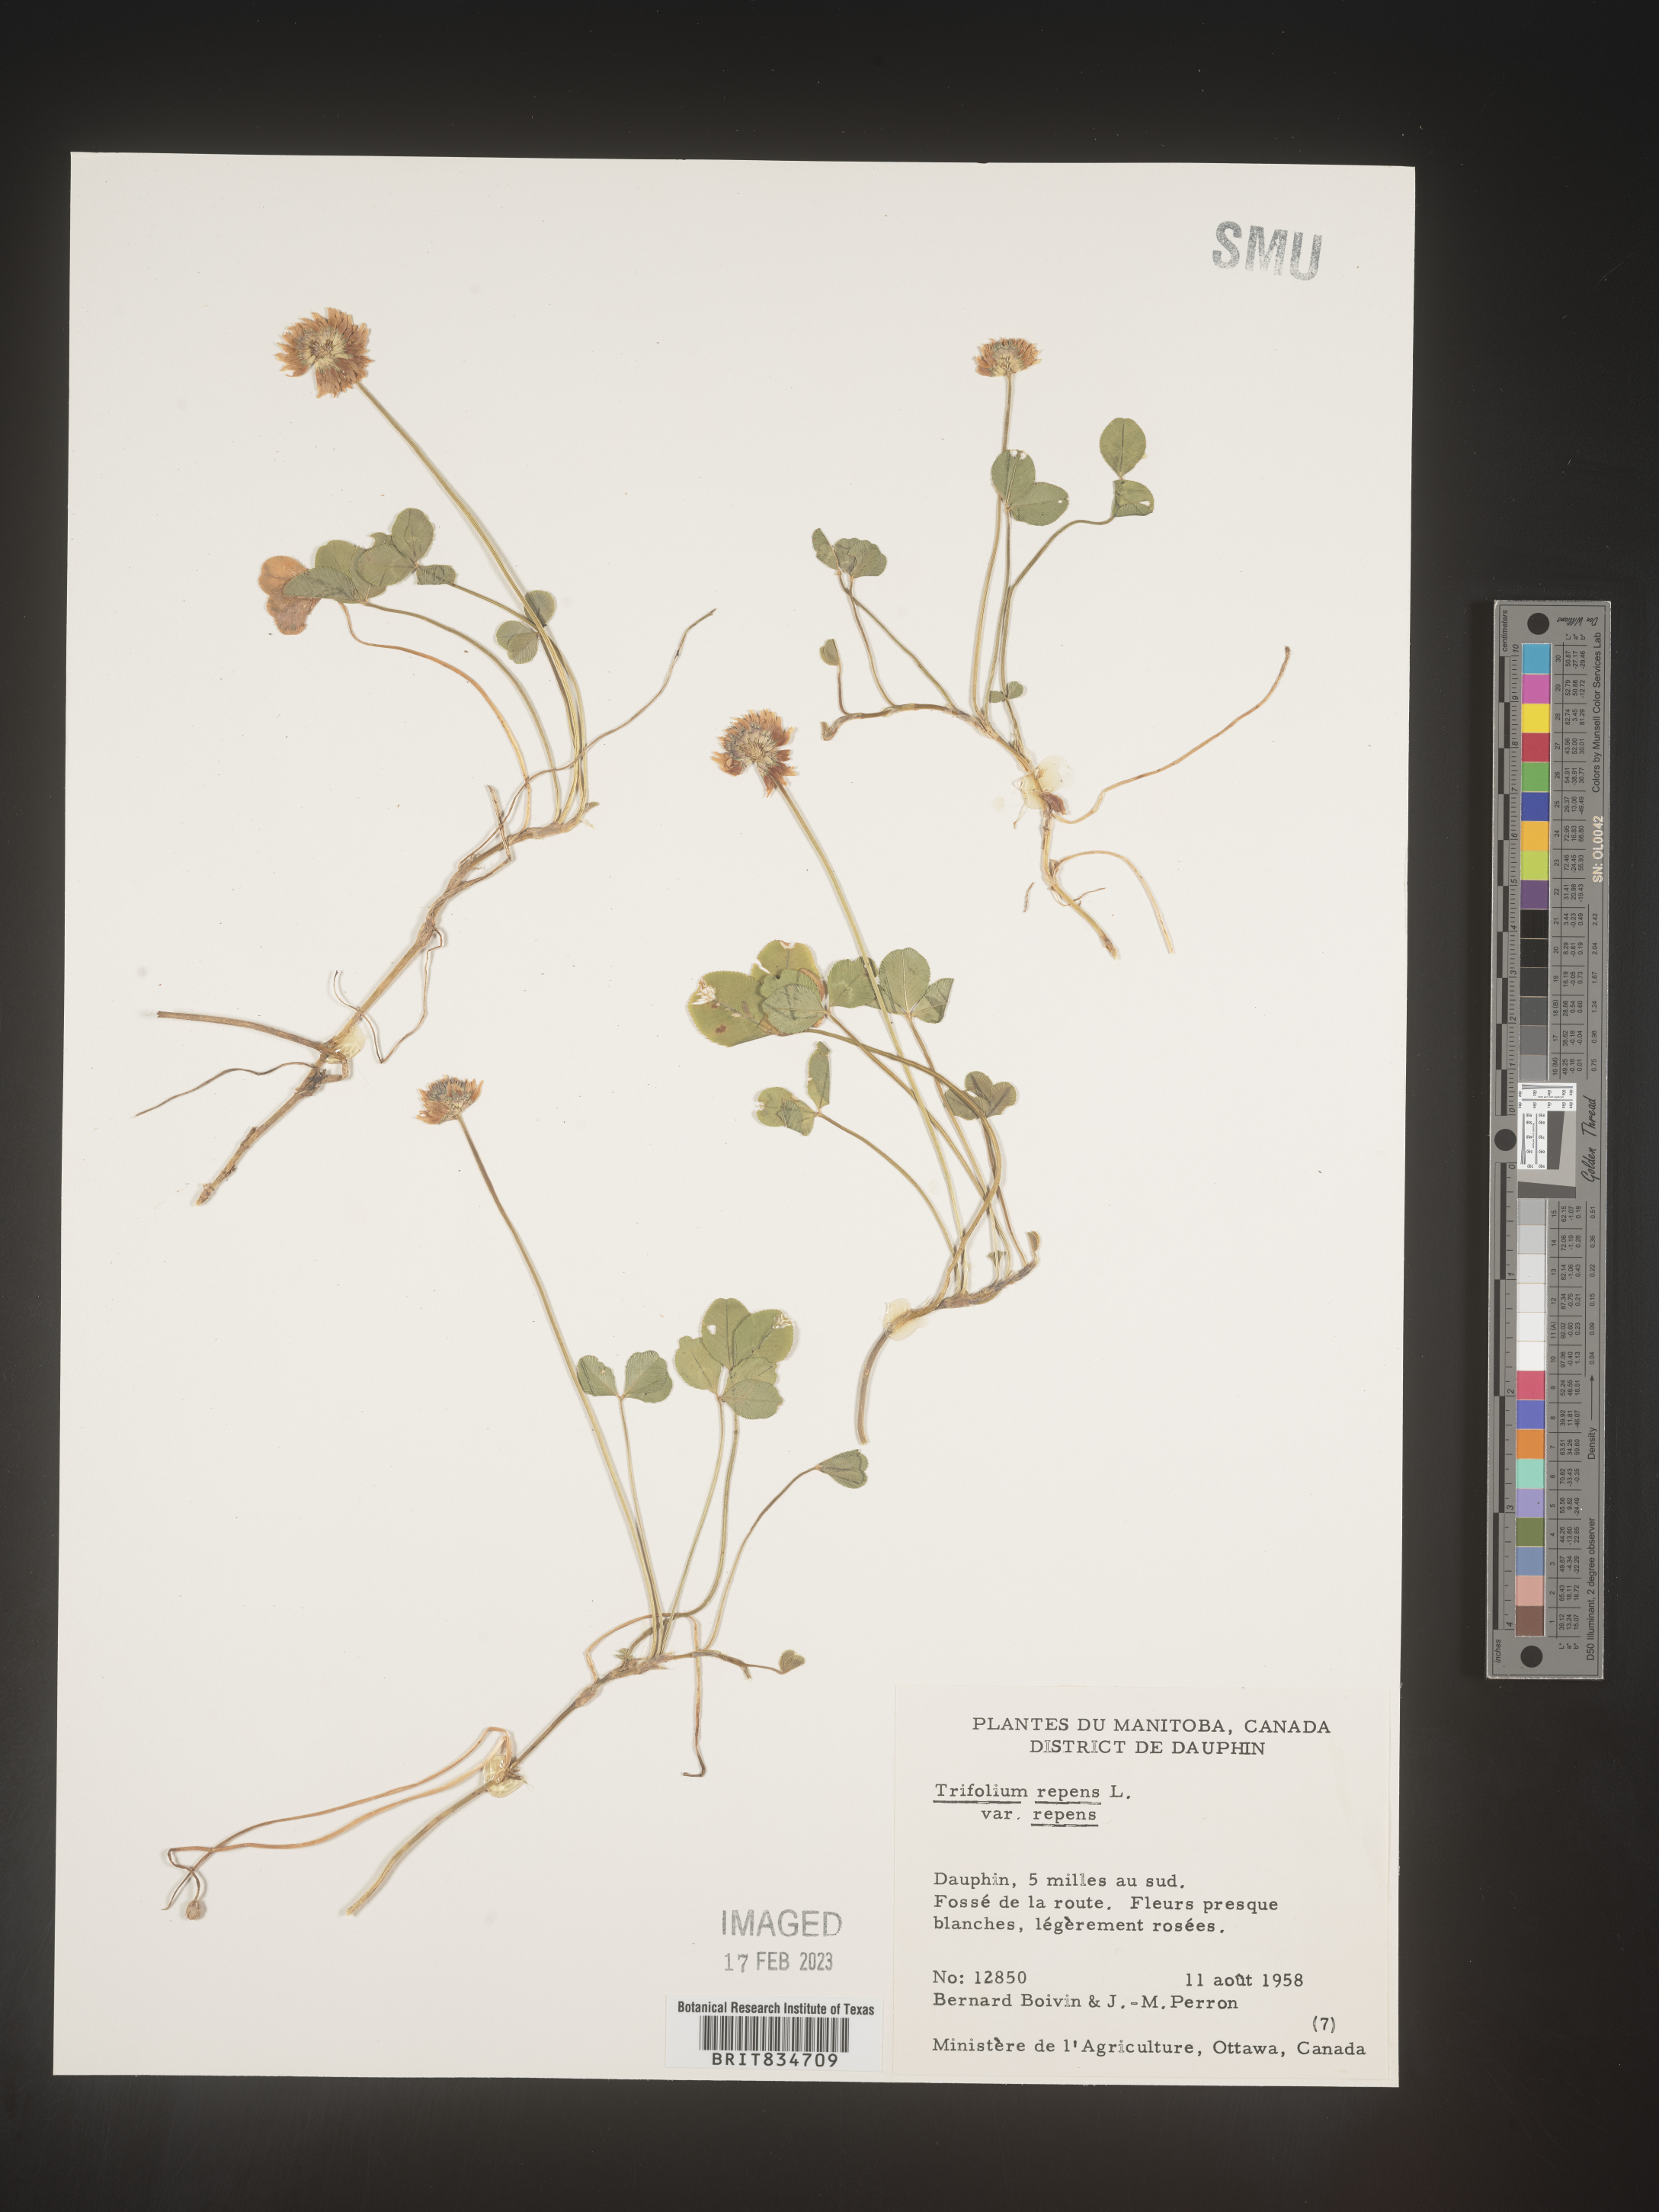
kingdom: Plantae
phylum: Tracheophyta
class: Magnoliopsida
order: Fabales
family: Fabaceae
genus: Trifolium
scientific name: Trifolium repens
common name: White clover
